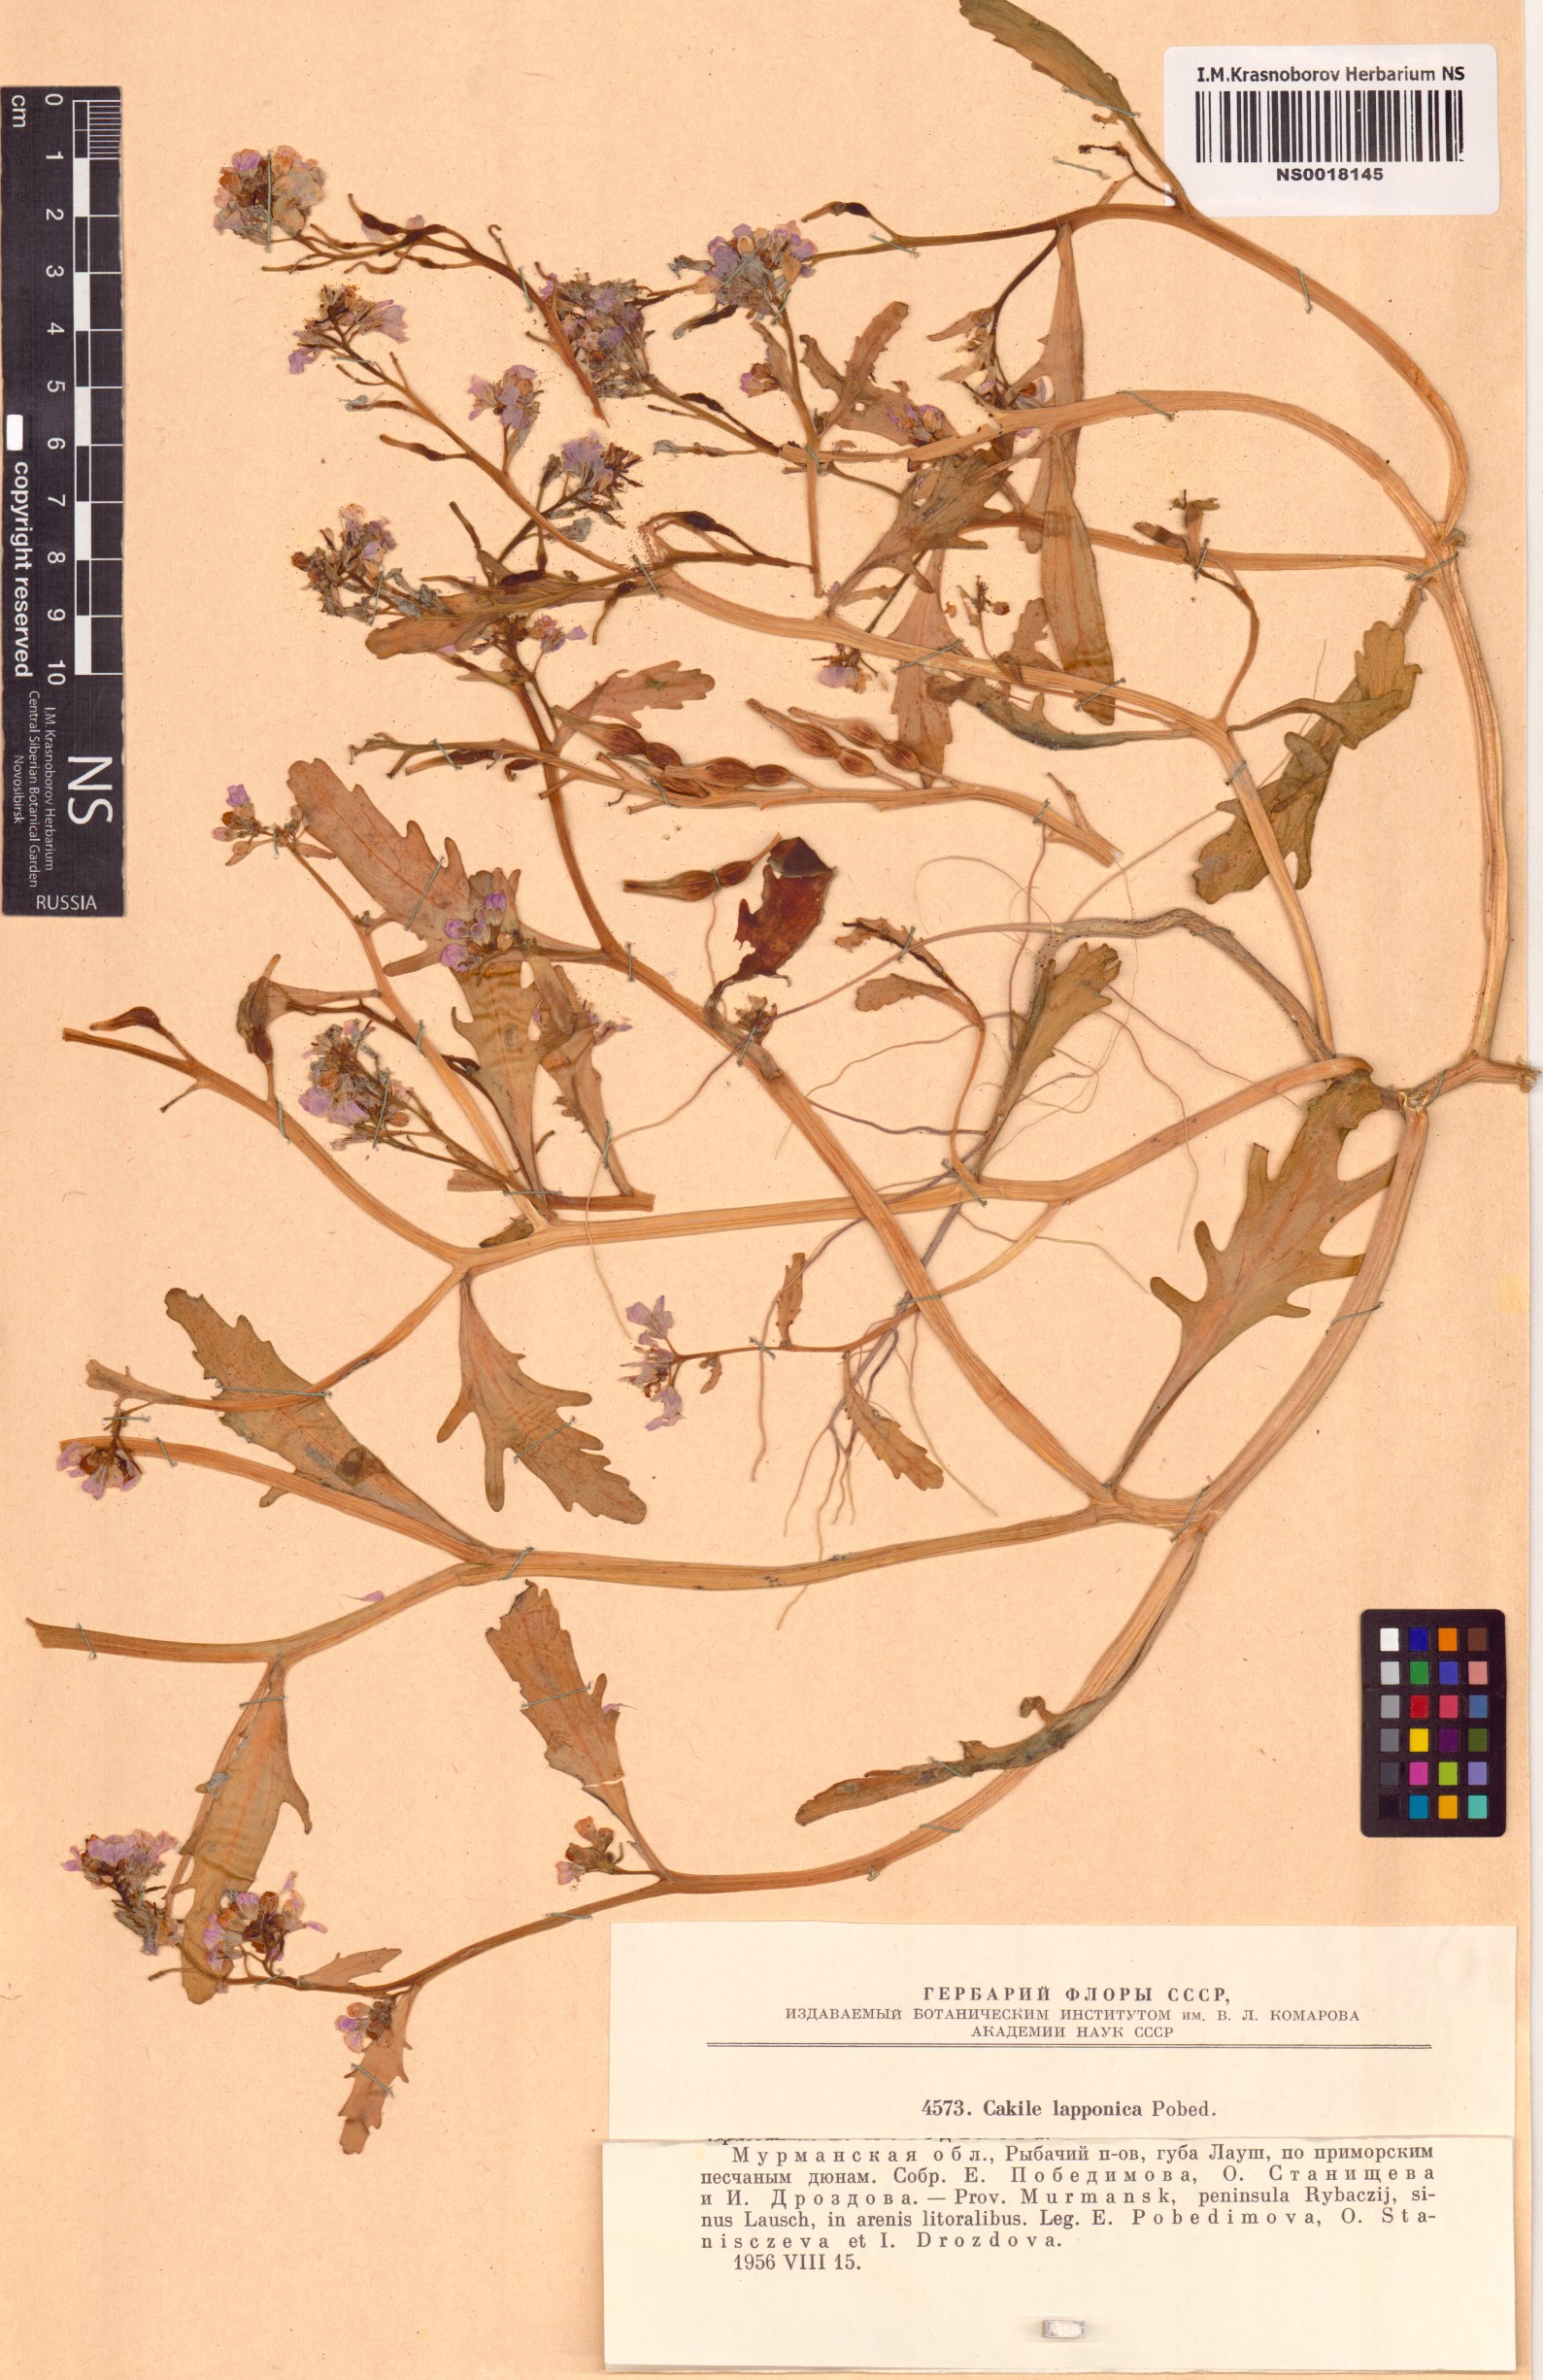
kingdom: Plantae
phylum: Tracheophyta
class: Magnoliopsida
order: Brassicales
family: Brassicaceae
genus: Cakile
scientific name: Cakile arctica
